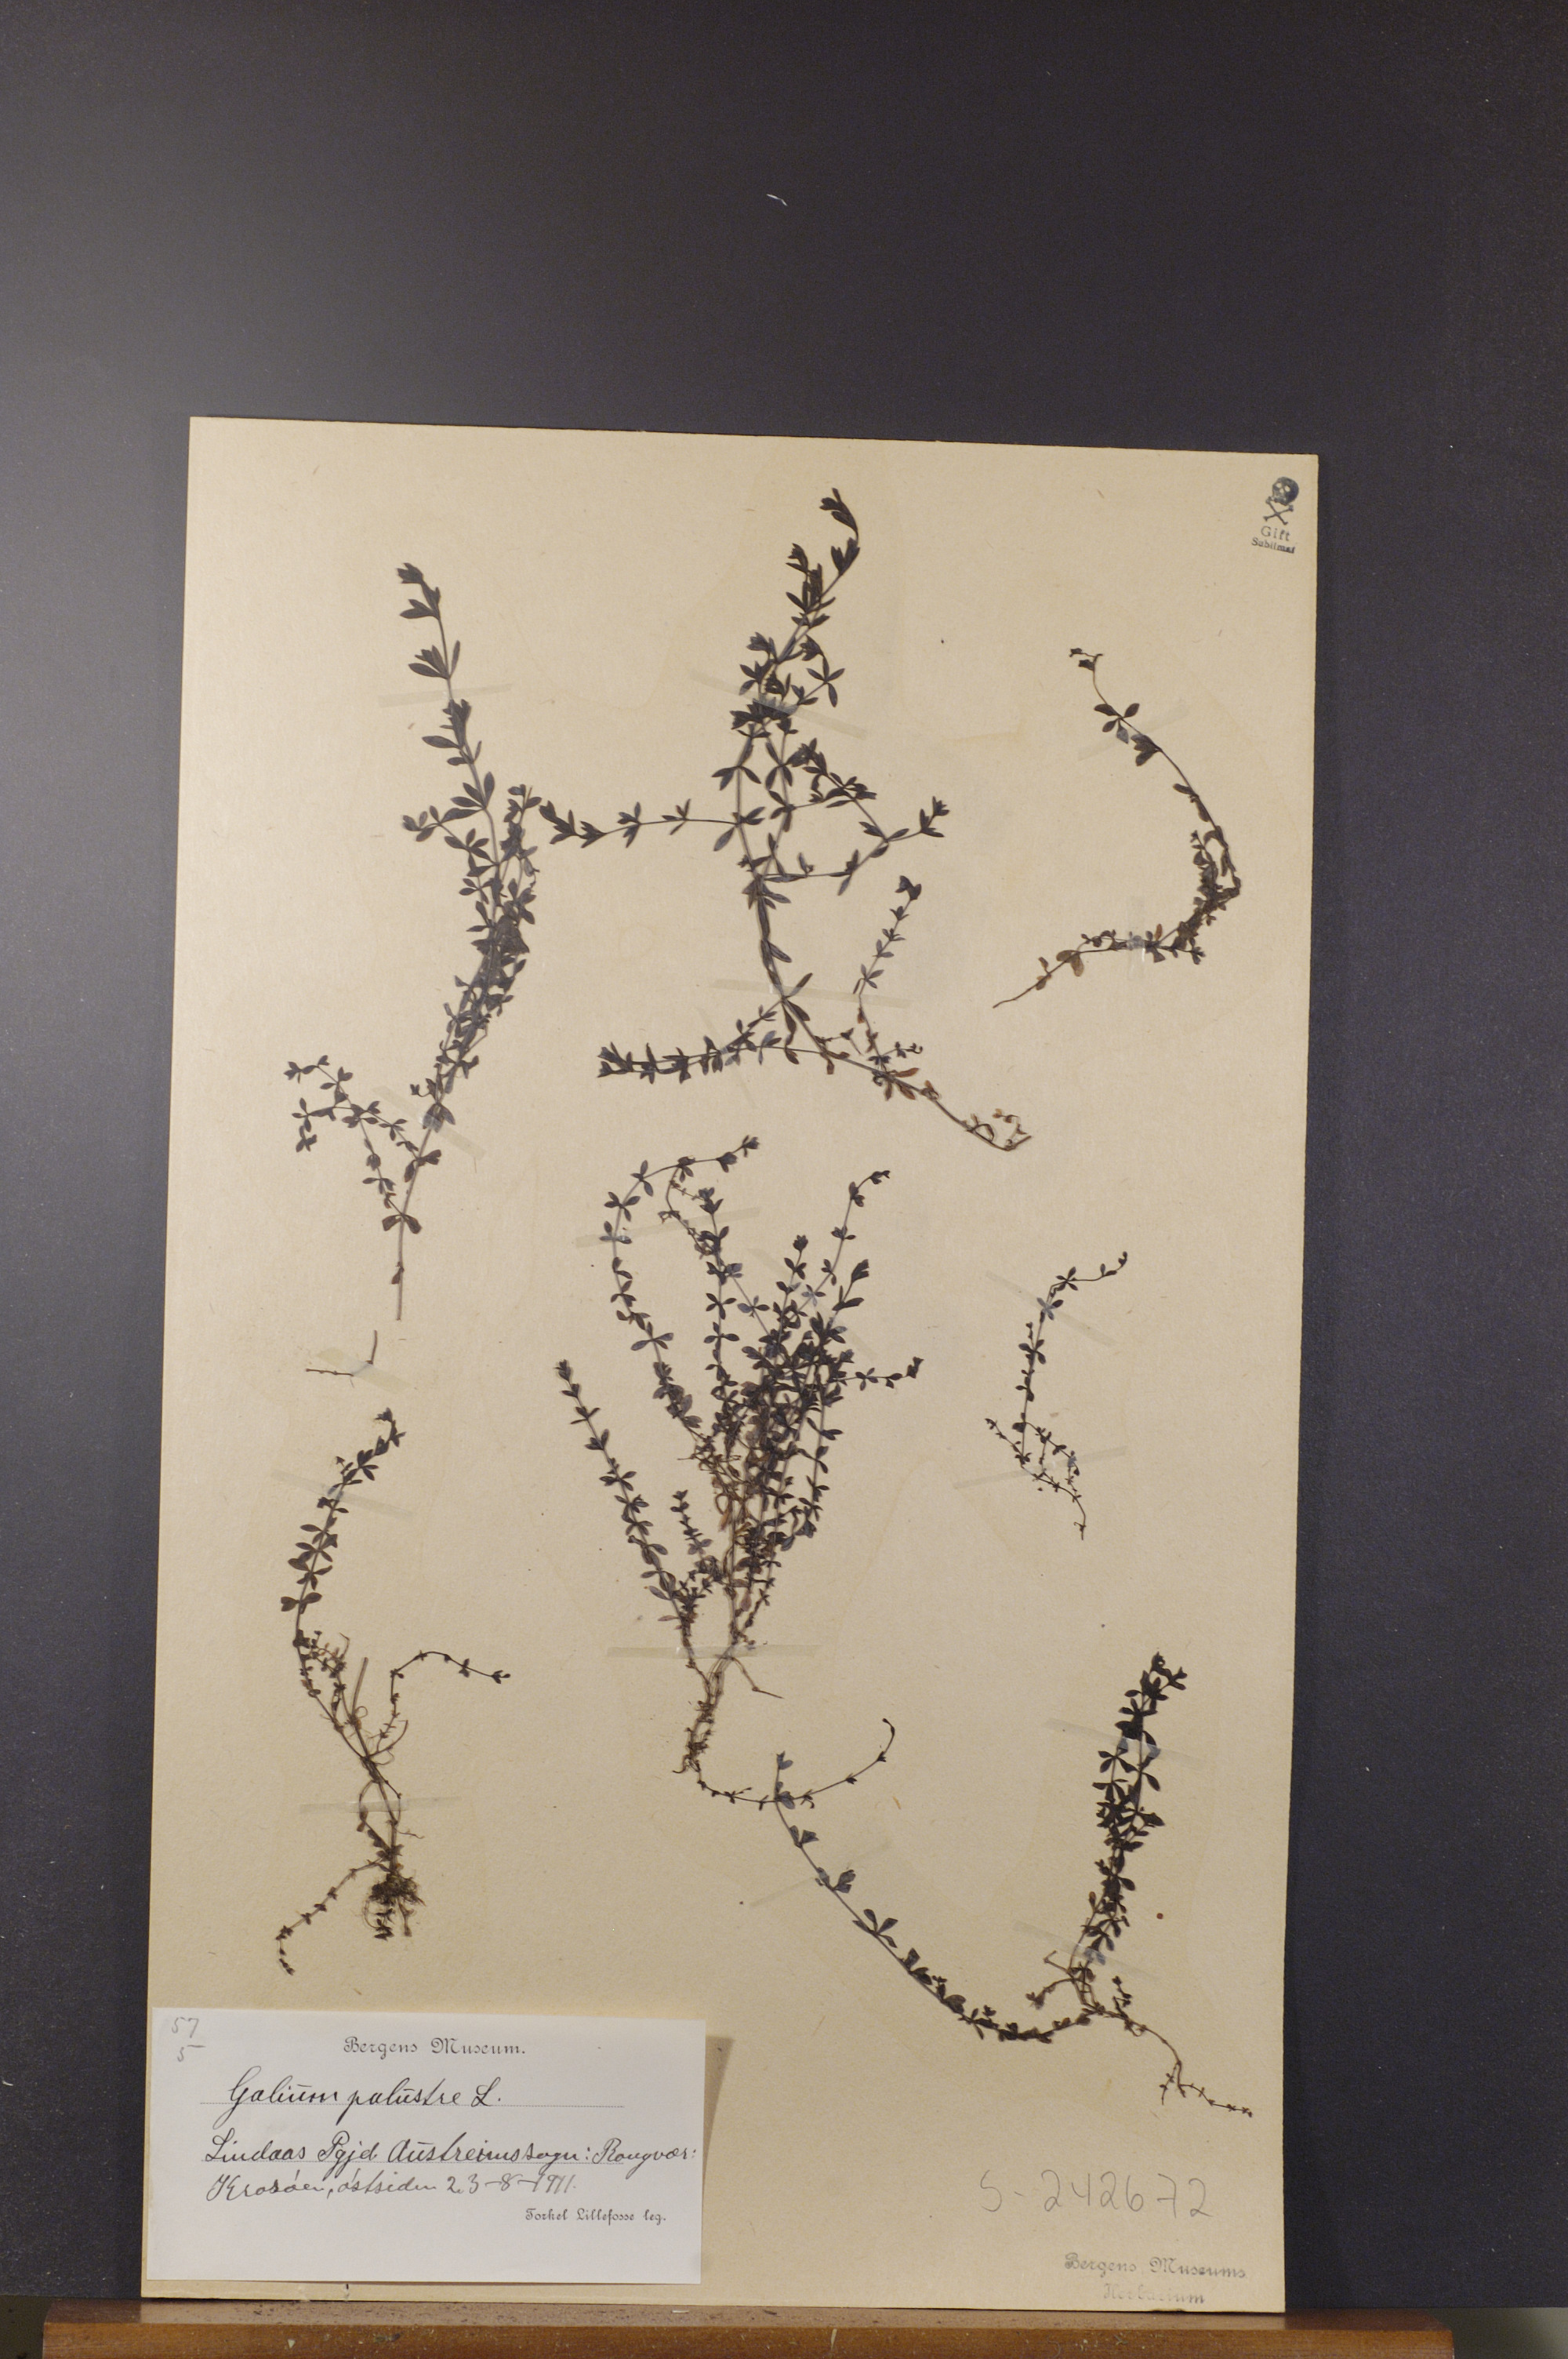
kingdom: Plantae
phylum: Tracheophyta
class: Magnoliopsida
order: Gentianales
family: Rubiaceae
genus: Galium
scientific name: Galium palustre
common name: Common marsh-bedstraw
